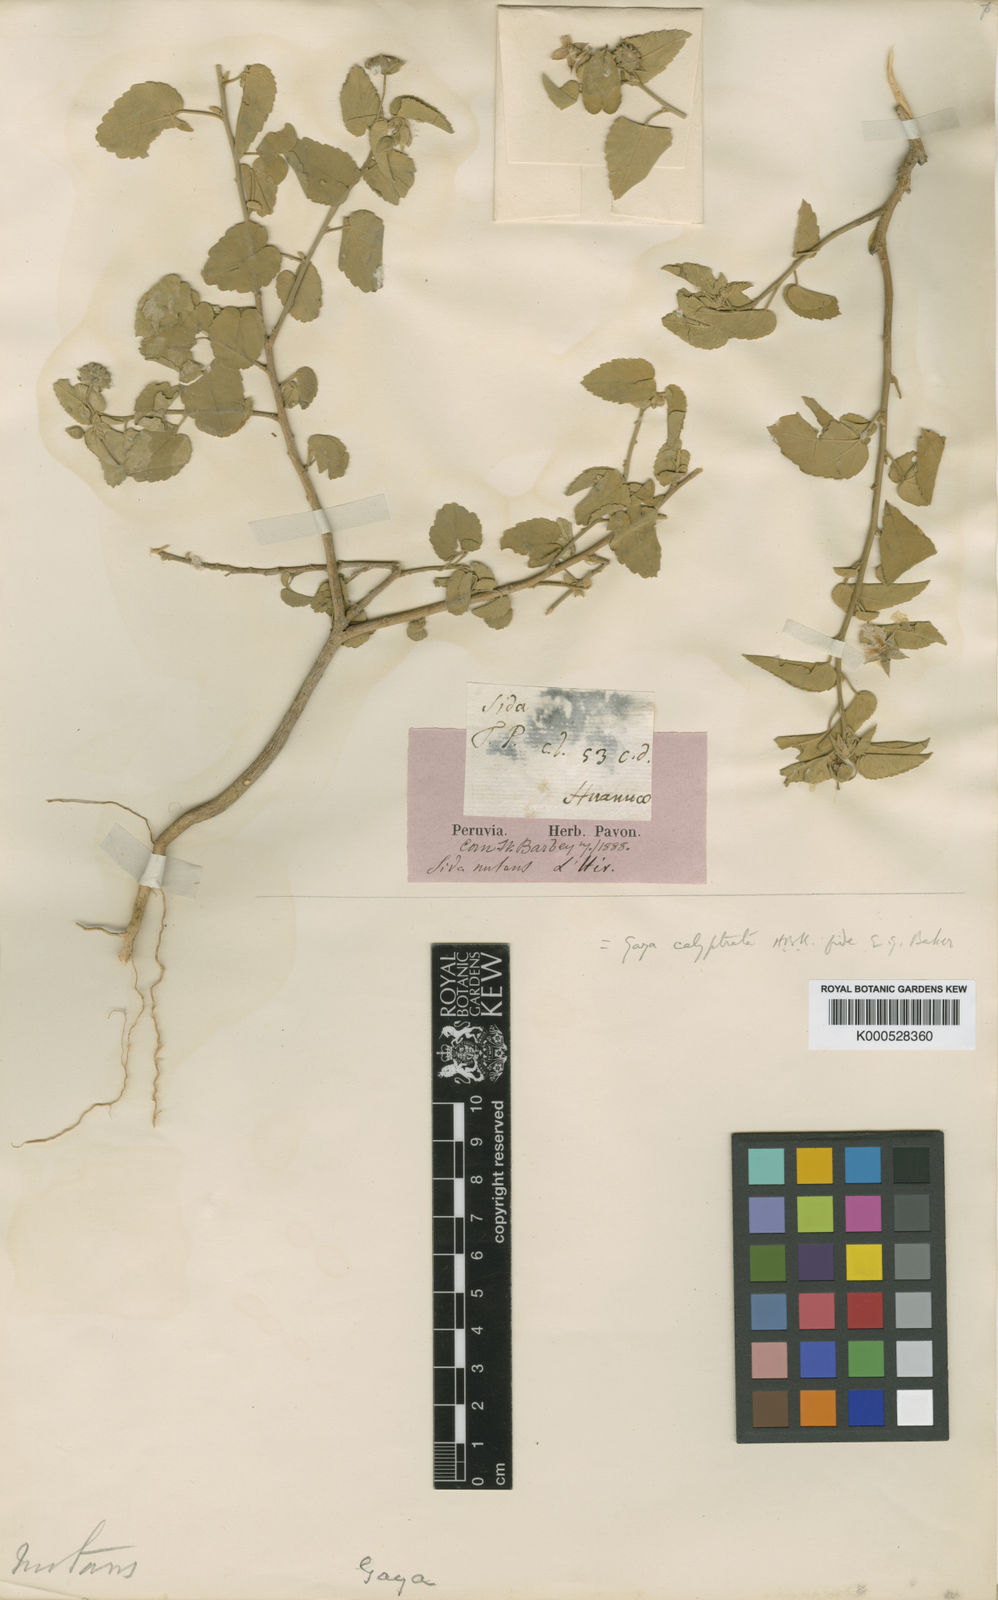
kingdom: Plantae
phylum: Tracheophyta
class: Magnoliopsida
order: Malvales
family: Malvaceae
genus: Gaya
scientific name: Gaya calyptrata
